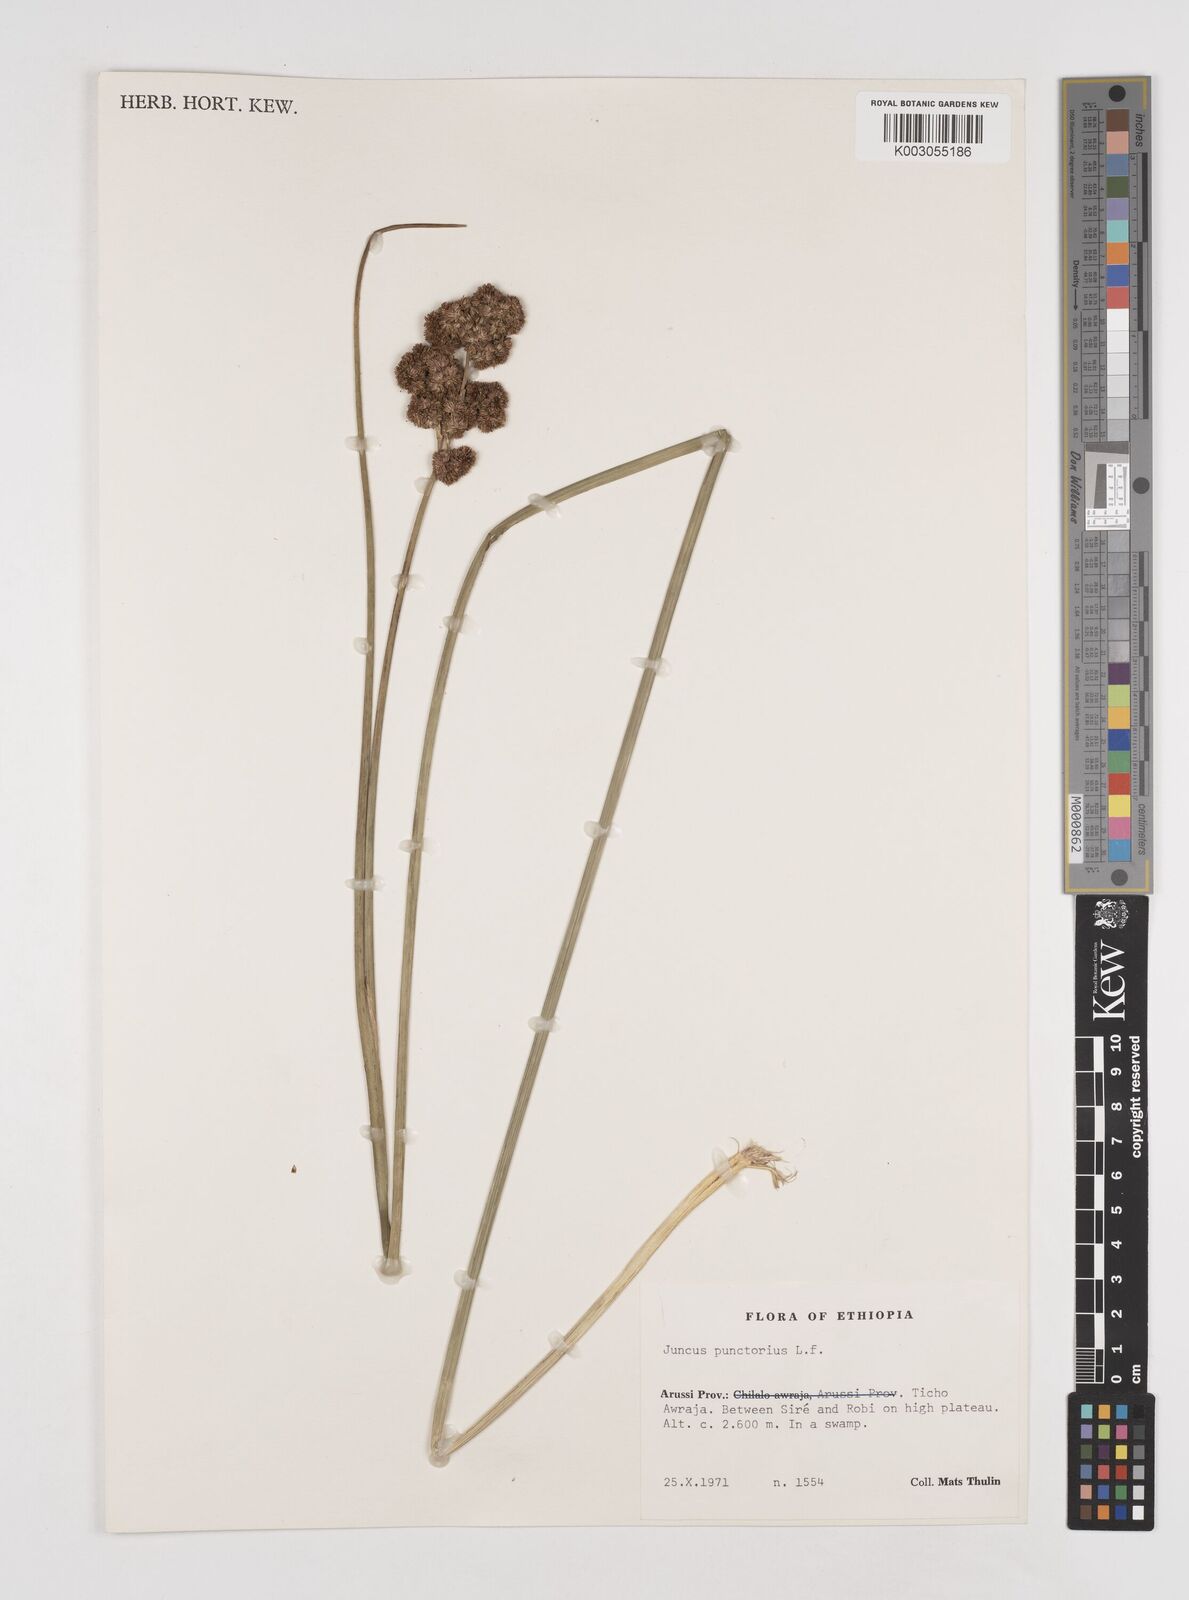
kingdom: Plantae
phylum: Tracheophyta
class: Liliopsida
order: Poales
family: Juncaceae
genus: Juncus
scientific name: Juncus punctorius
